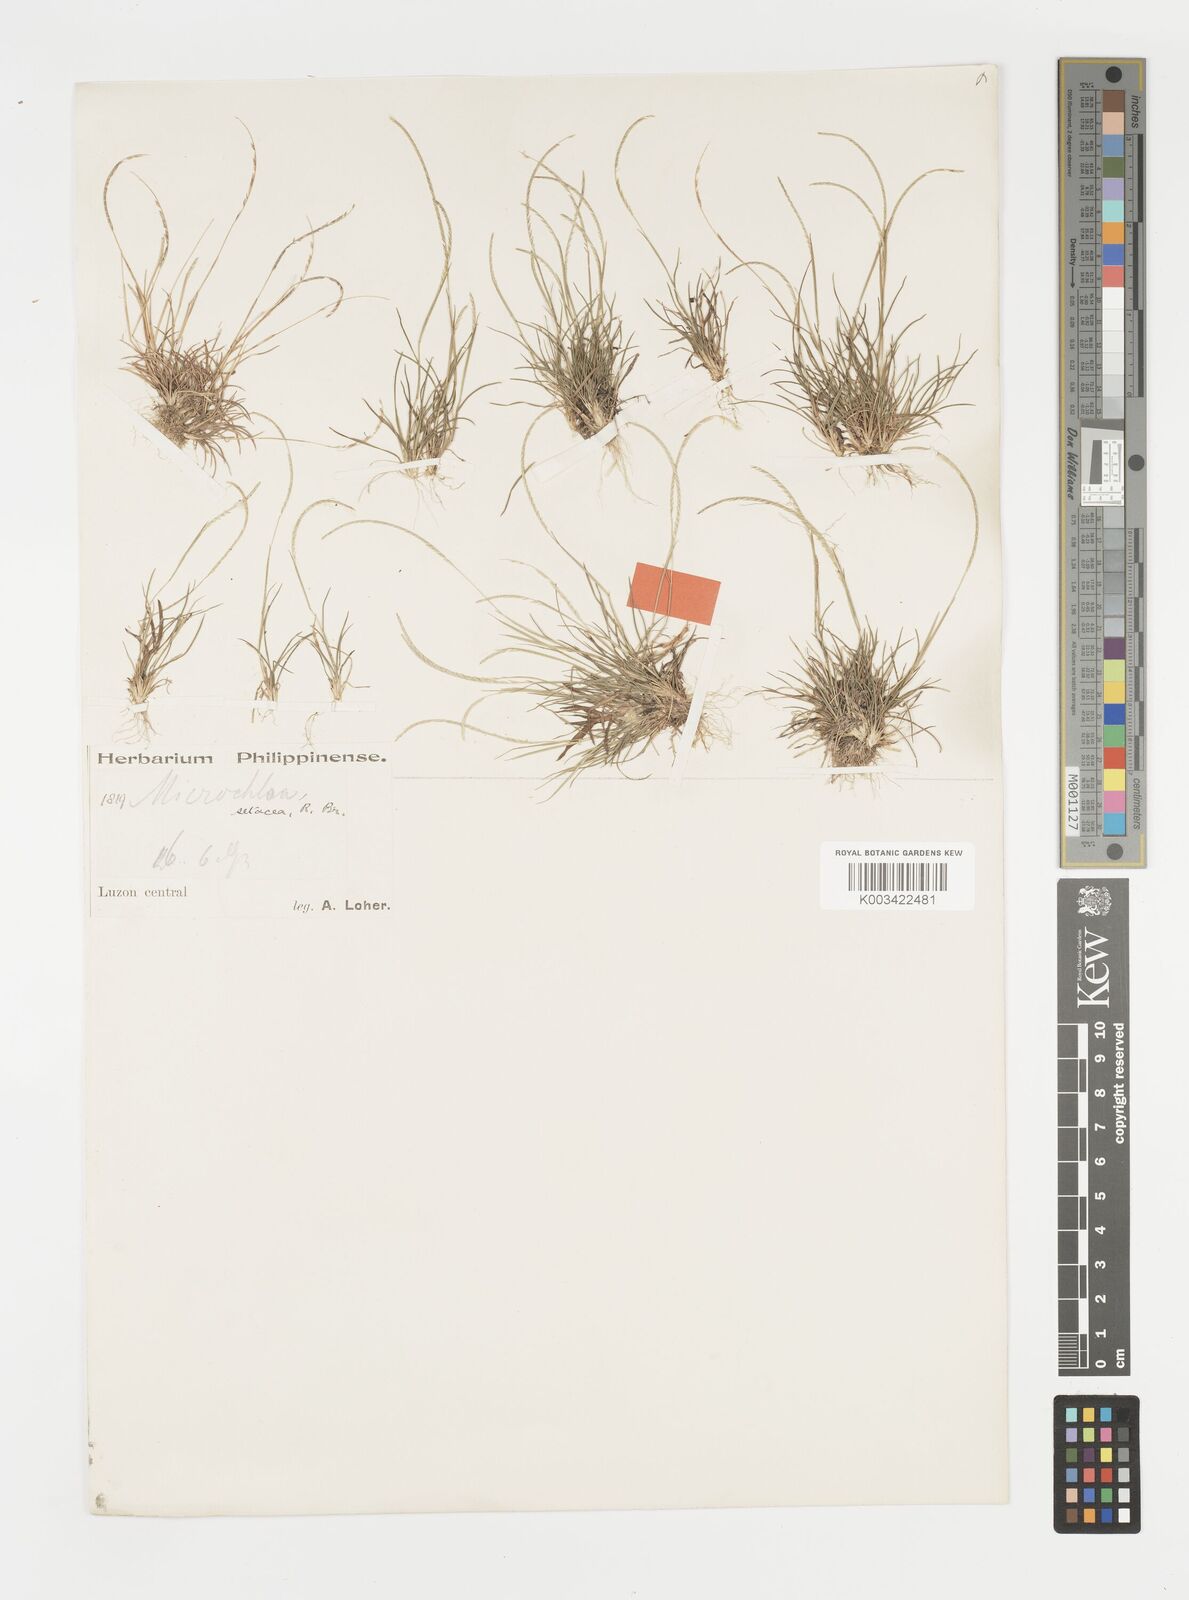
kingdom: Plantae
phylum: Tracheophyta
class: Liliopsida
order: Poales
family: Poaceae
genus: Microchloa
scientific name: Microchloa kunthii
